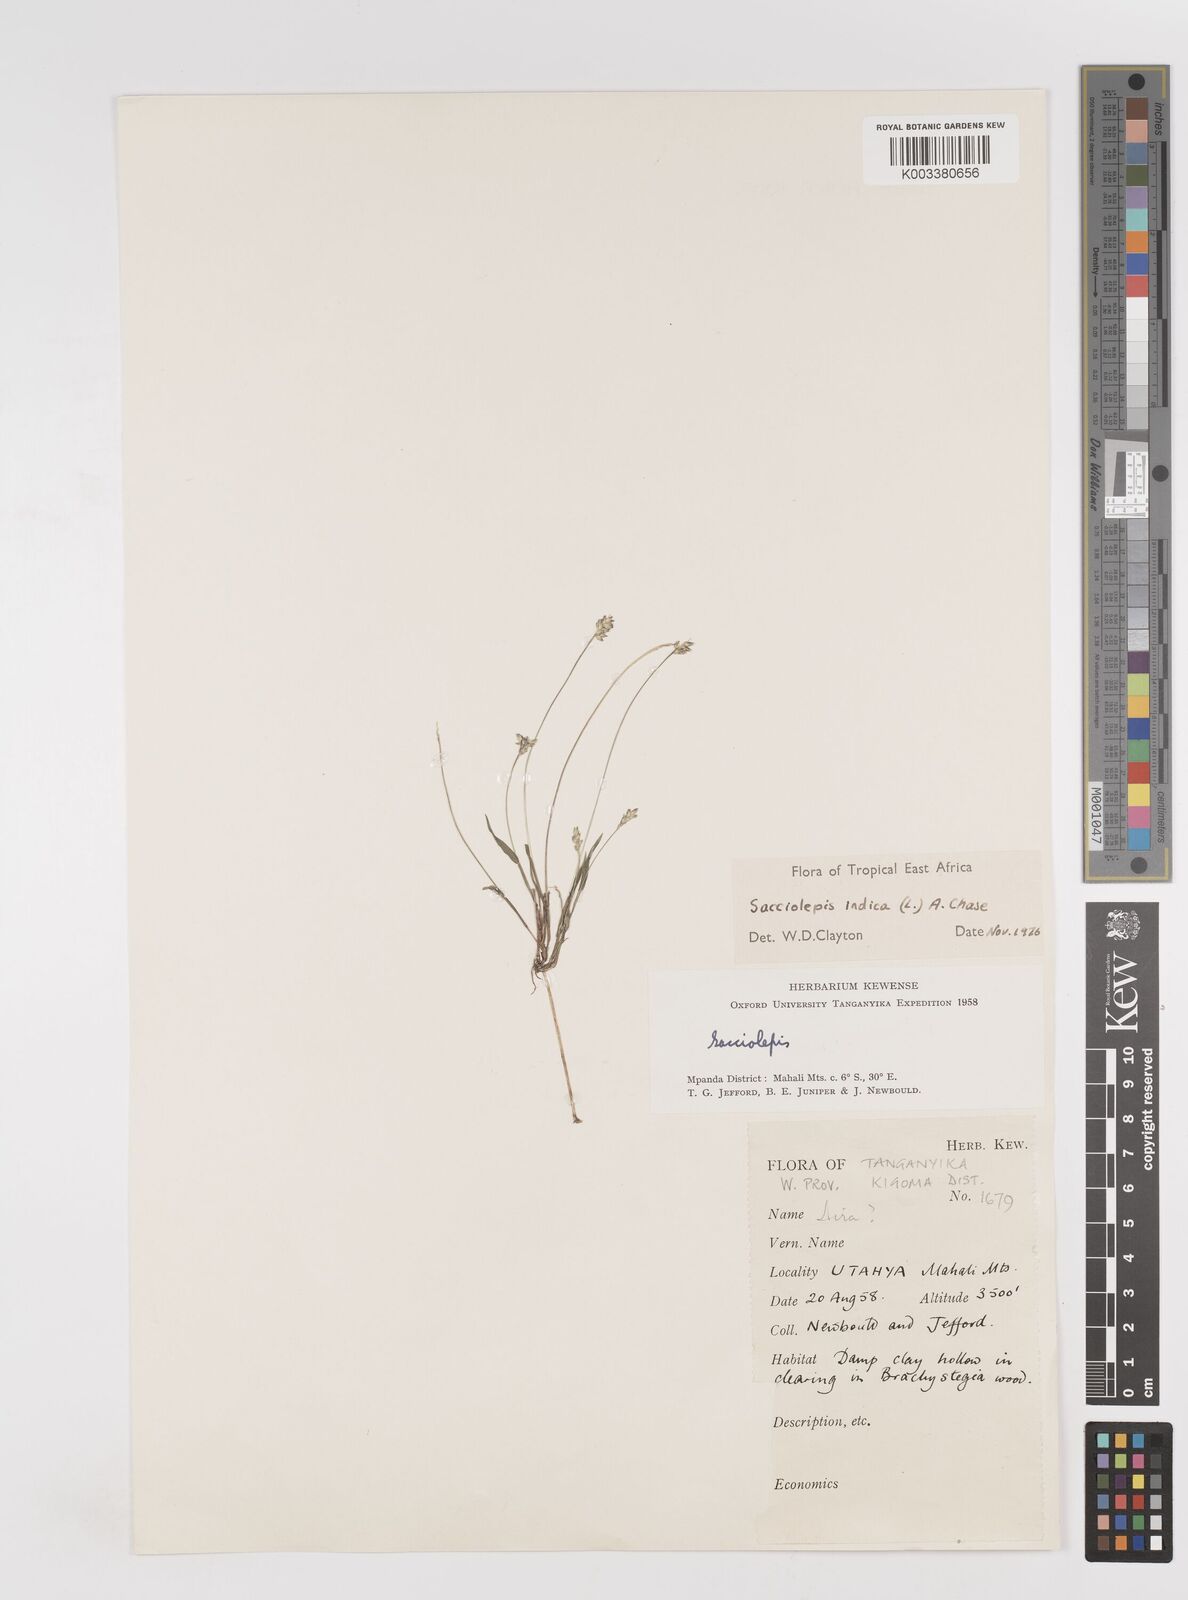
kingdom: Plantae
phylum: Tracheophyta
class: Liliopsida
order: Poales
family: Poaceae
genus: Sacciolepis
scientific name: Sacciolepis indica
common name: Glenwoodgrass
